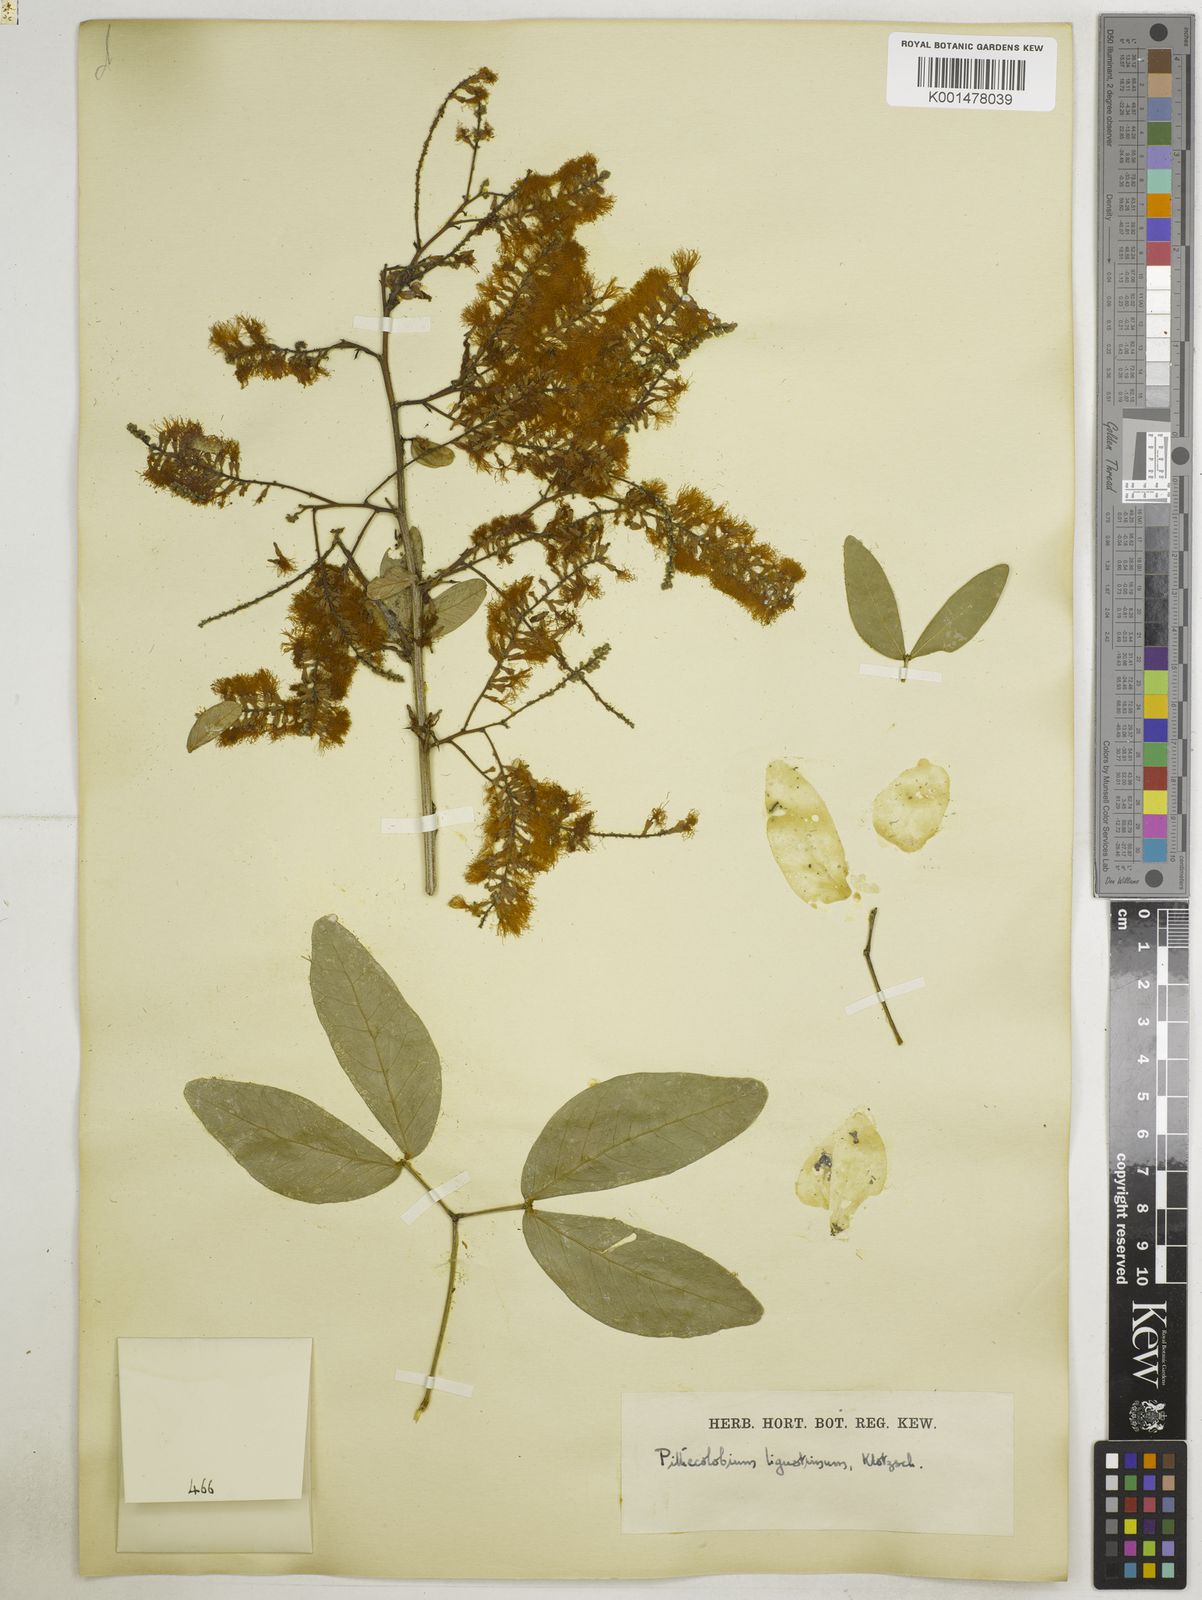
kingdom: Plantae
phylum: Tracheophyta
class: Magnoliopsida
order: Fabales
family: Fabaceae
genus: Pithecellobium
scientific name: Pithecellobium lanceolatum
